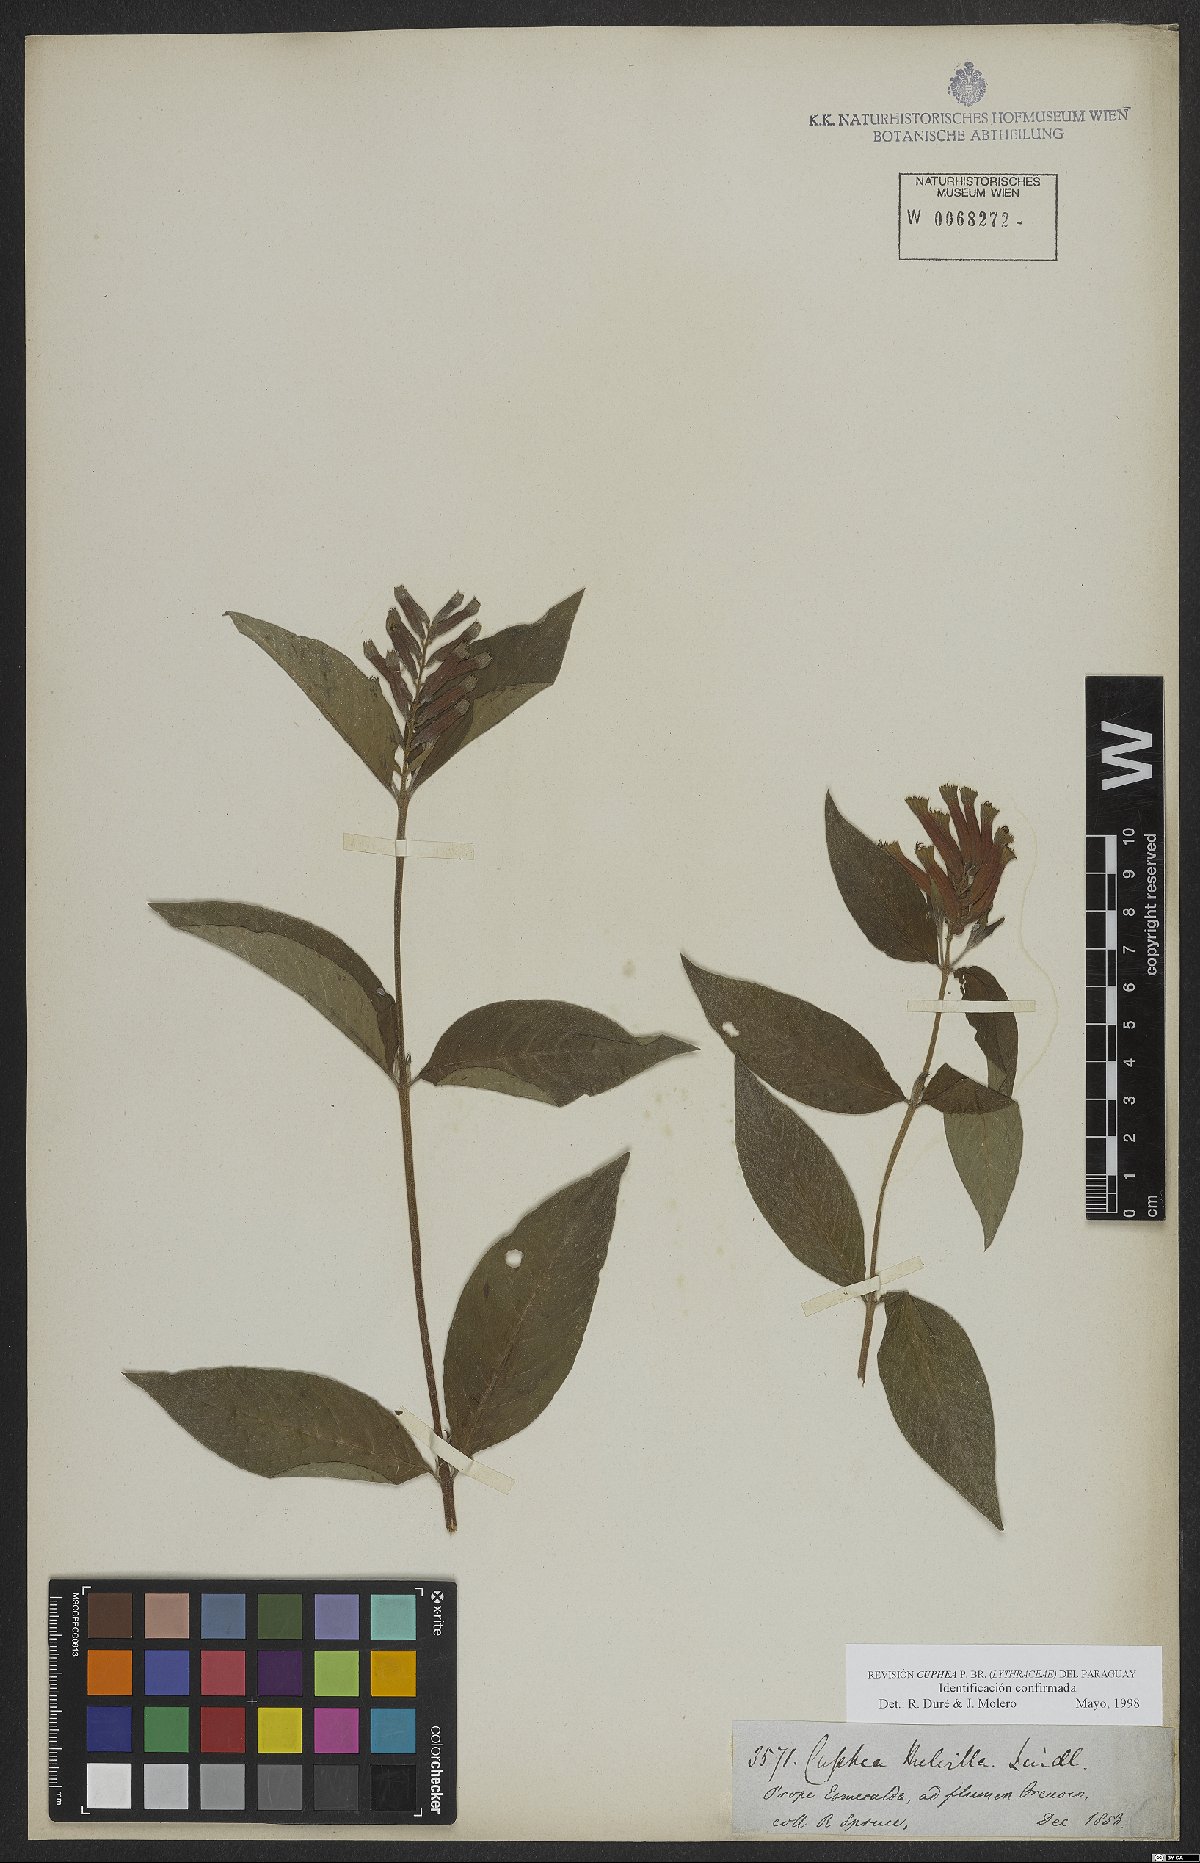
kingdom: Plantae
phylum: Tracheophyta
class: Magnoliopsida
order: Myrtales
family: Lythraceae
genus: Cuphea
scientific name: Cuphea melvilla
